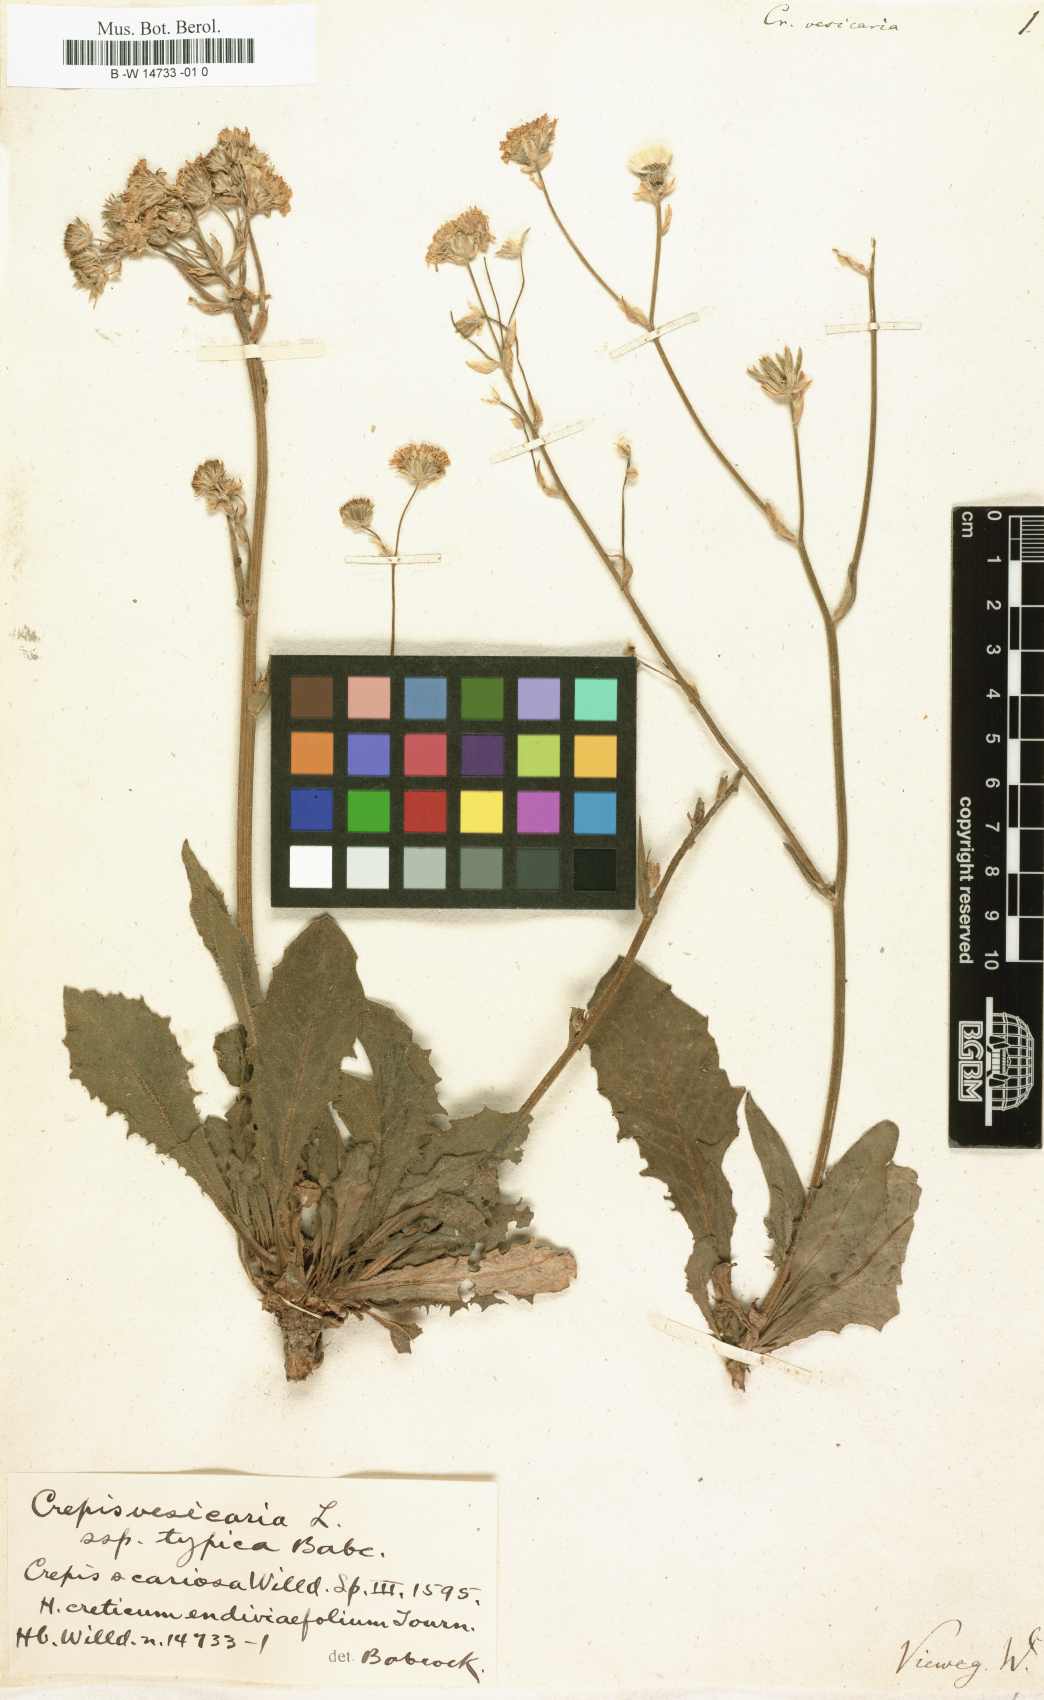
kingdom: Plantae
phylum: Tracheophyta
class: Magnoliopsida
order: Asterales
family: Asteraceae
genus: Crepis
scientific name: Crepis vesicaria
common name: Beaked hawksbeard
